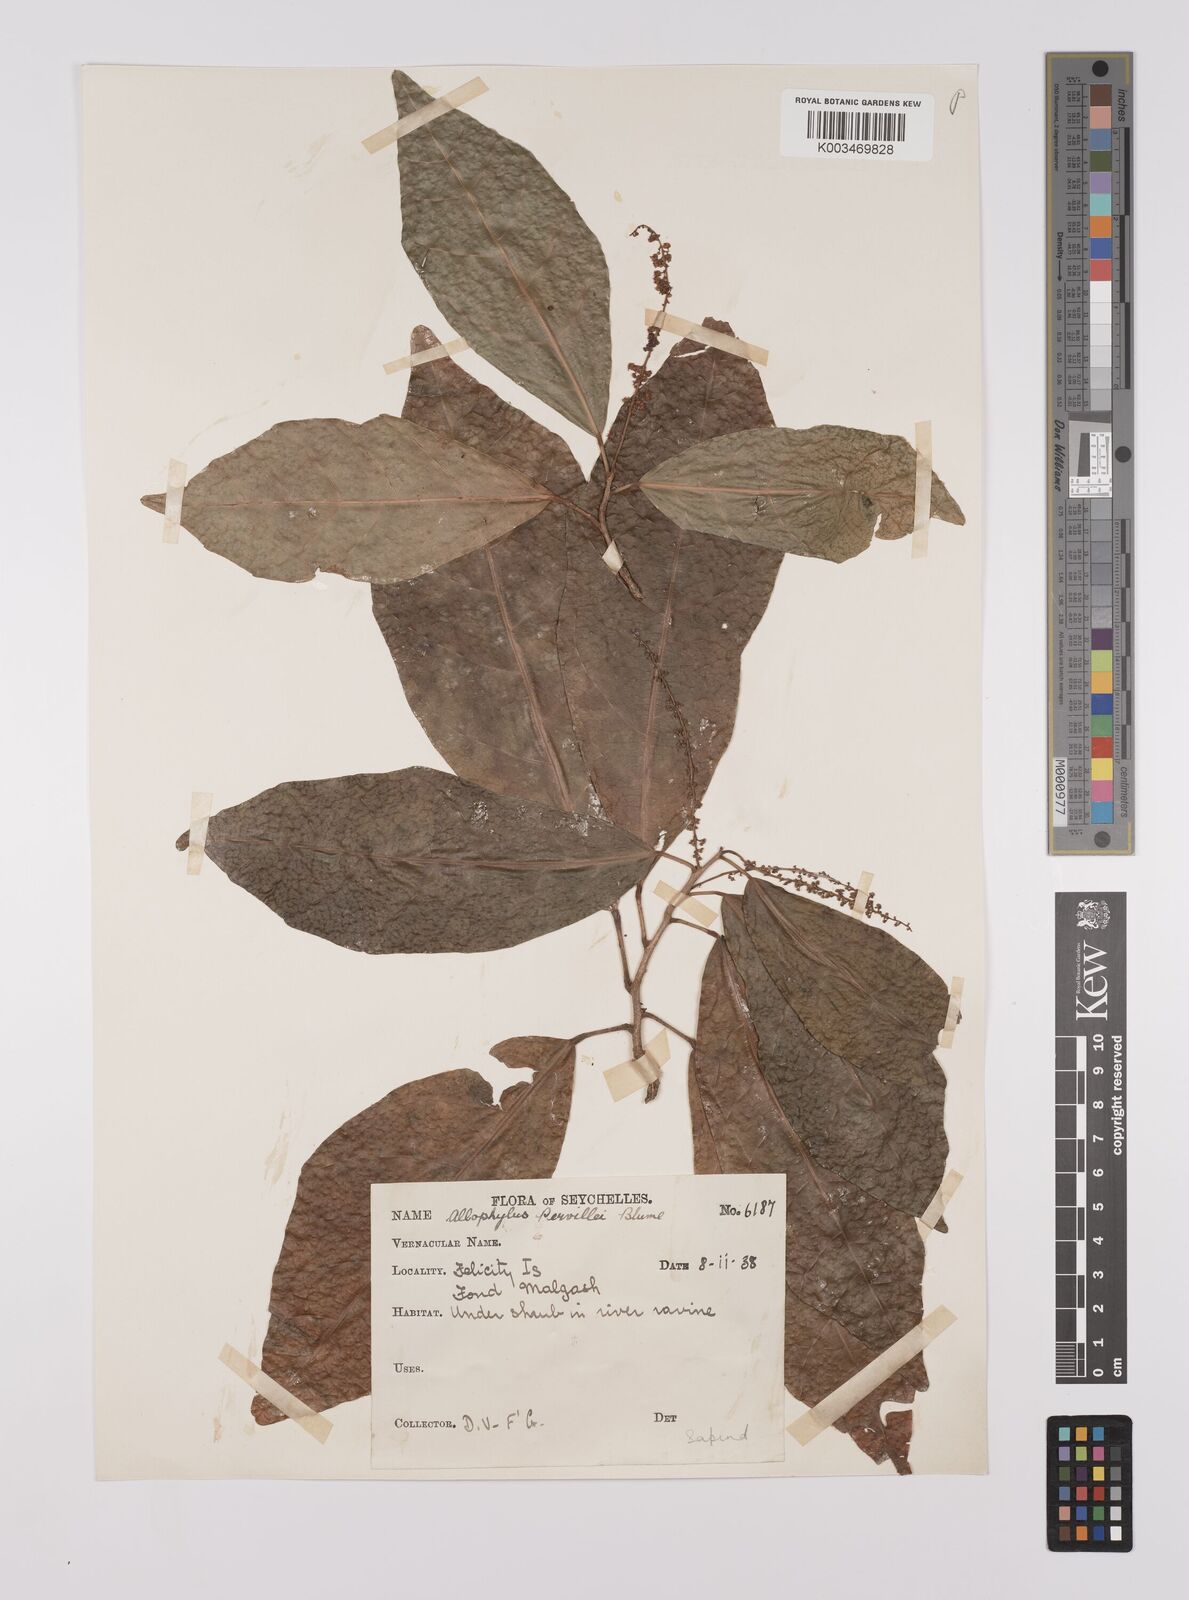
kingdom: Plantae
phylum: Tracheophyta
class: Magnoliopsida
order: Sapindales
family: Sapindaceae
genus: Allophylus
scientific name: Allophylus pervillei
